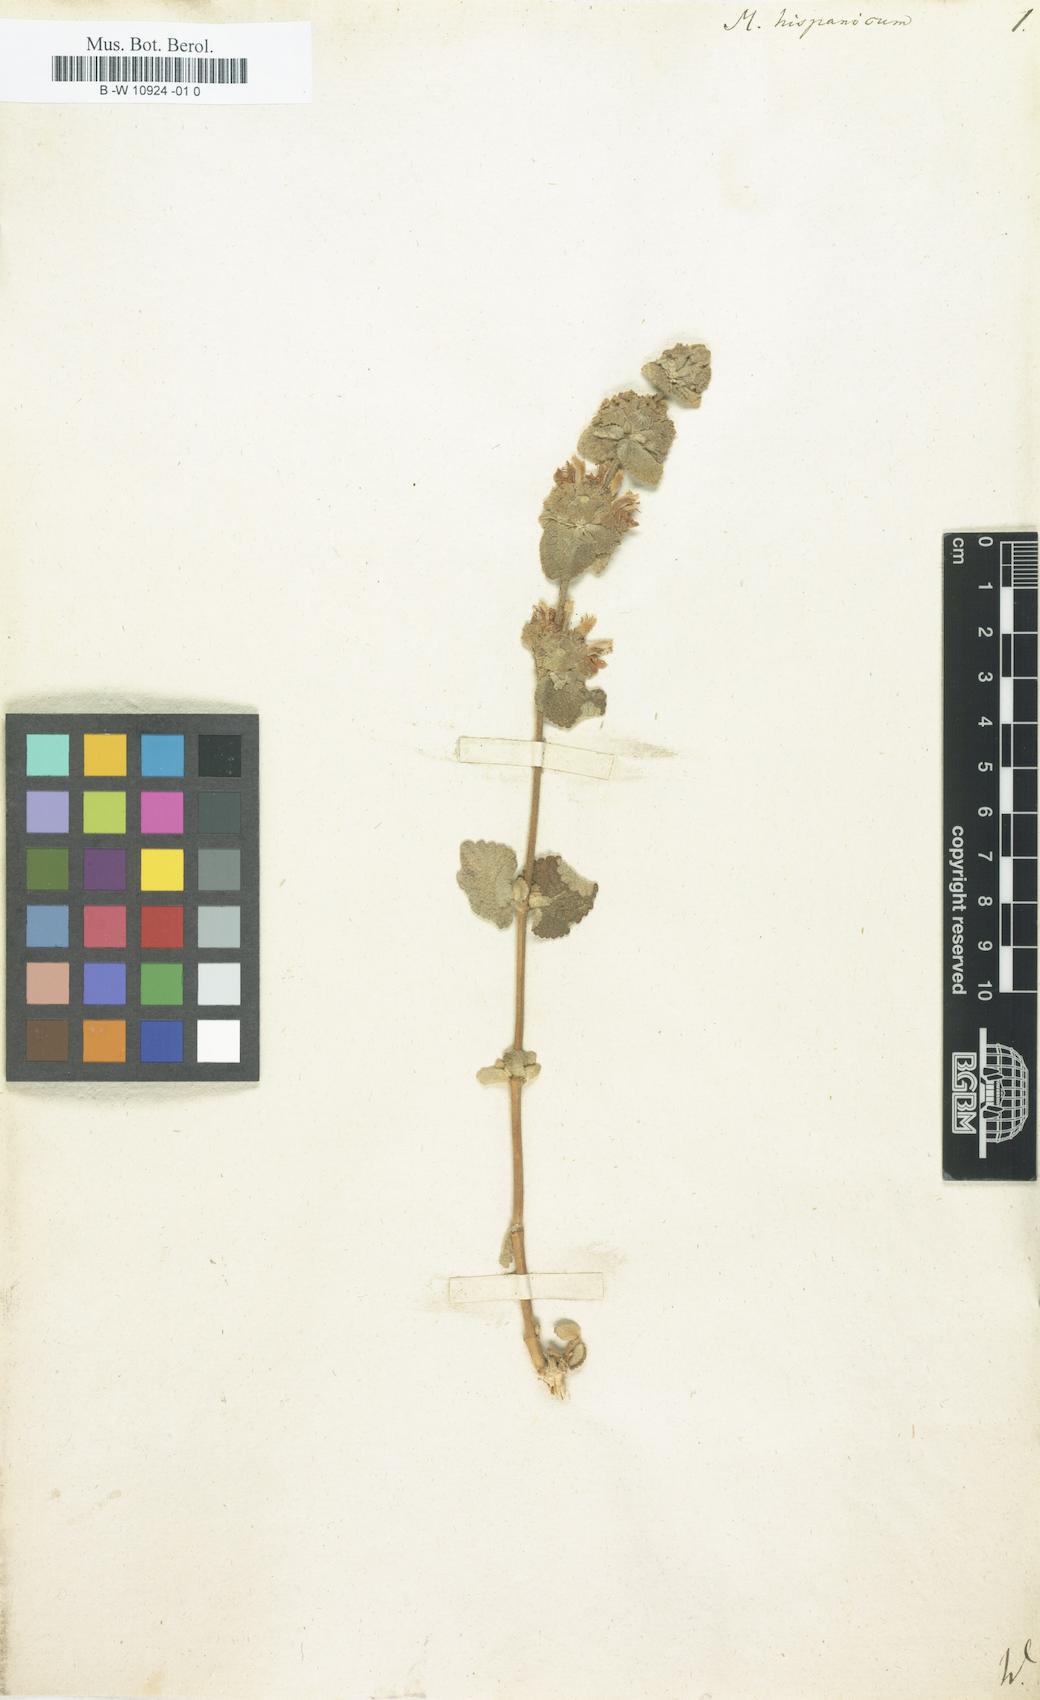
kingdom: Plantae
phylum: Tracheophyta
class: Magnoliopsida
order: Lamiales
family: Lamiaceae
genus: Marrubium
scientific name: Marrubium hispanicum
